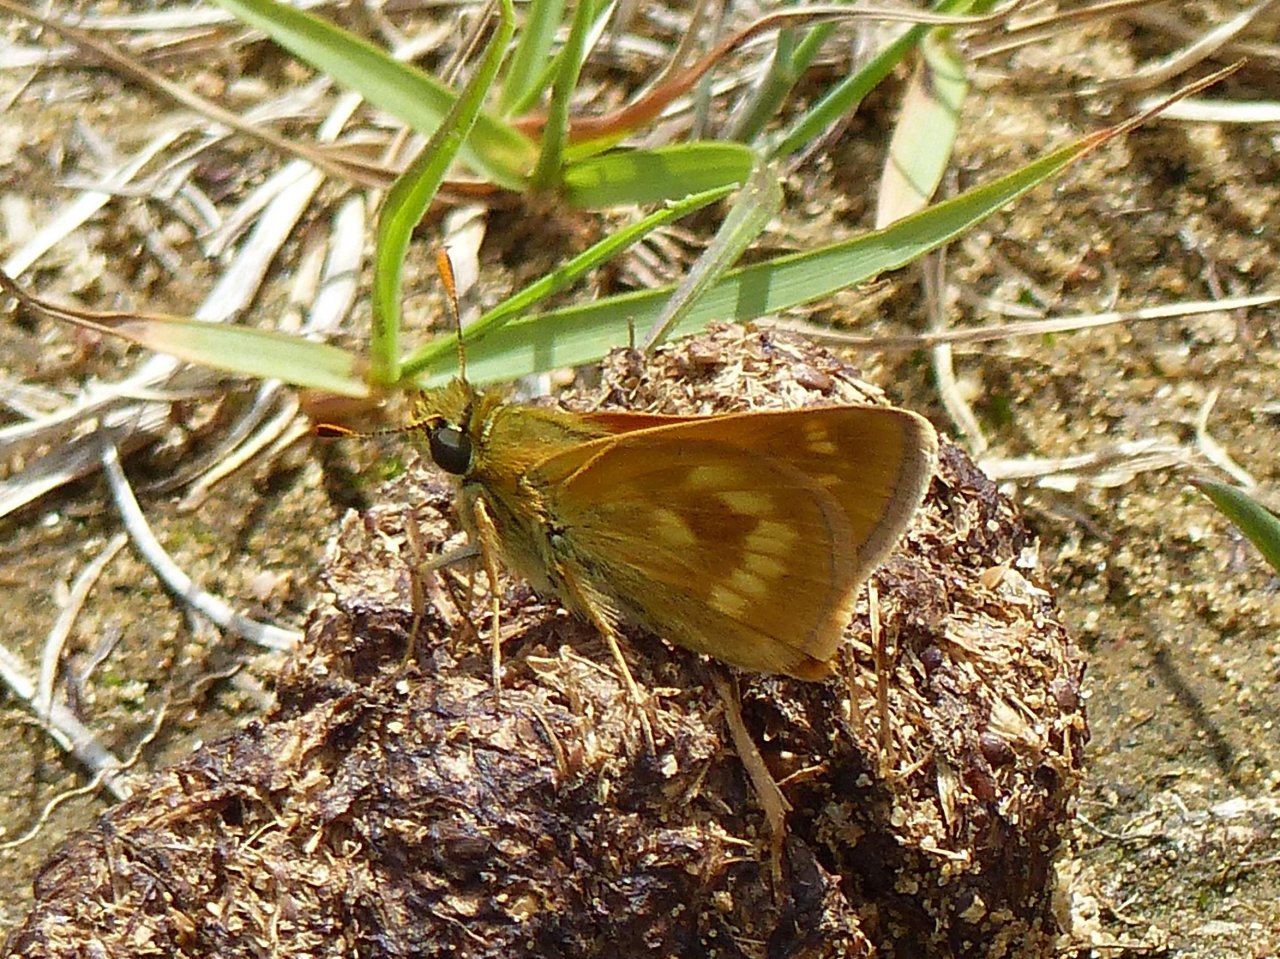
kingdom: Animalia
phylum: Arthropoda
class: Insecta
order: Lepidoptera
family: Hesperiidae
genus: Polites
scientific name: Polites
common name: Long Dash Skipper
